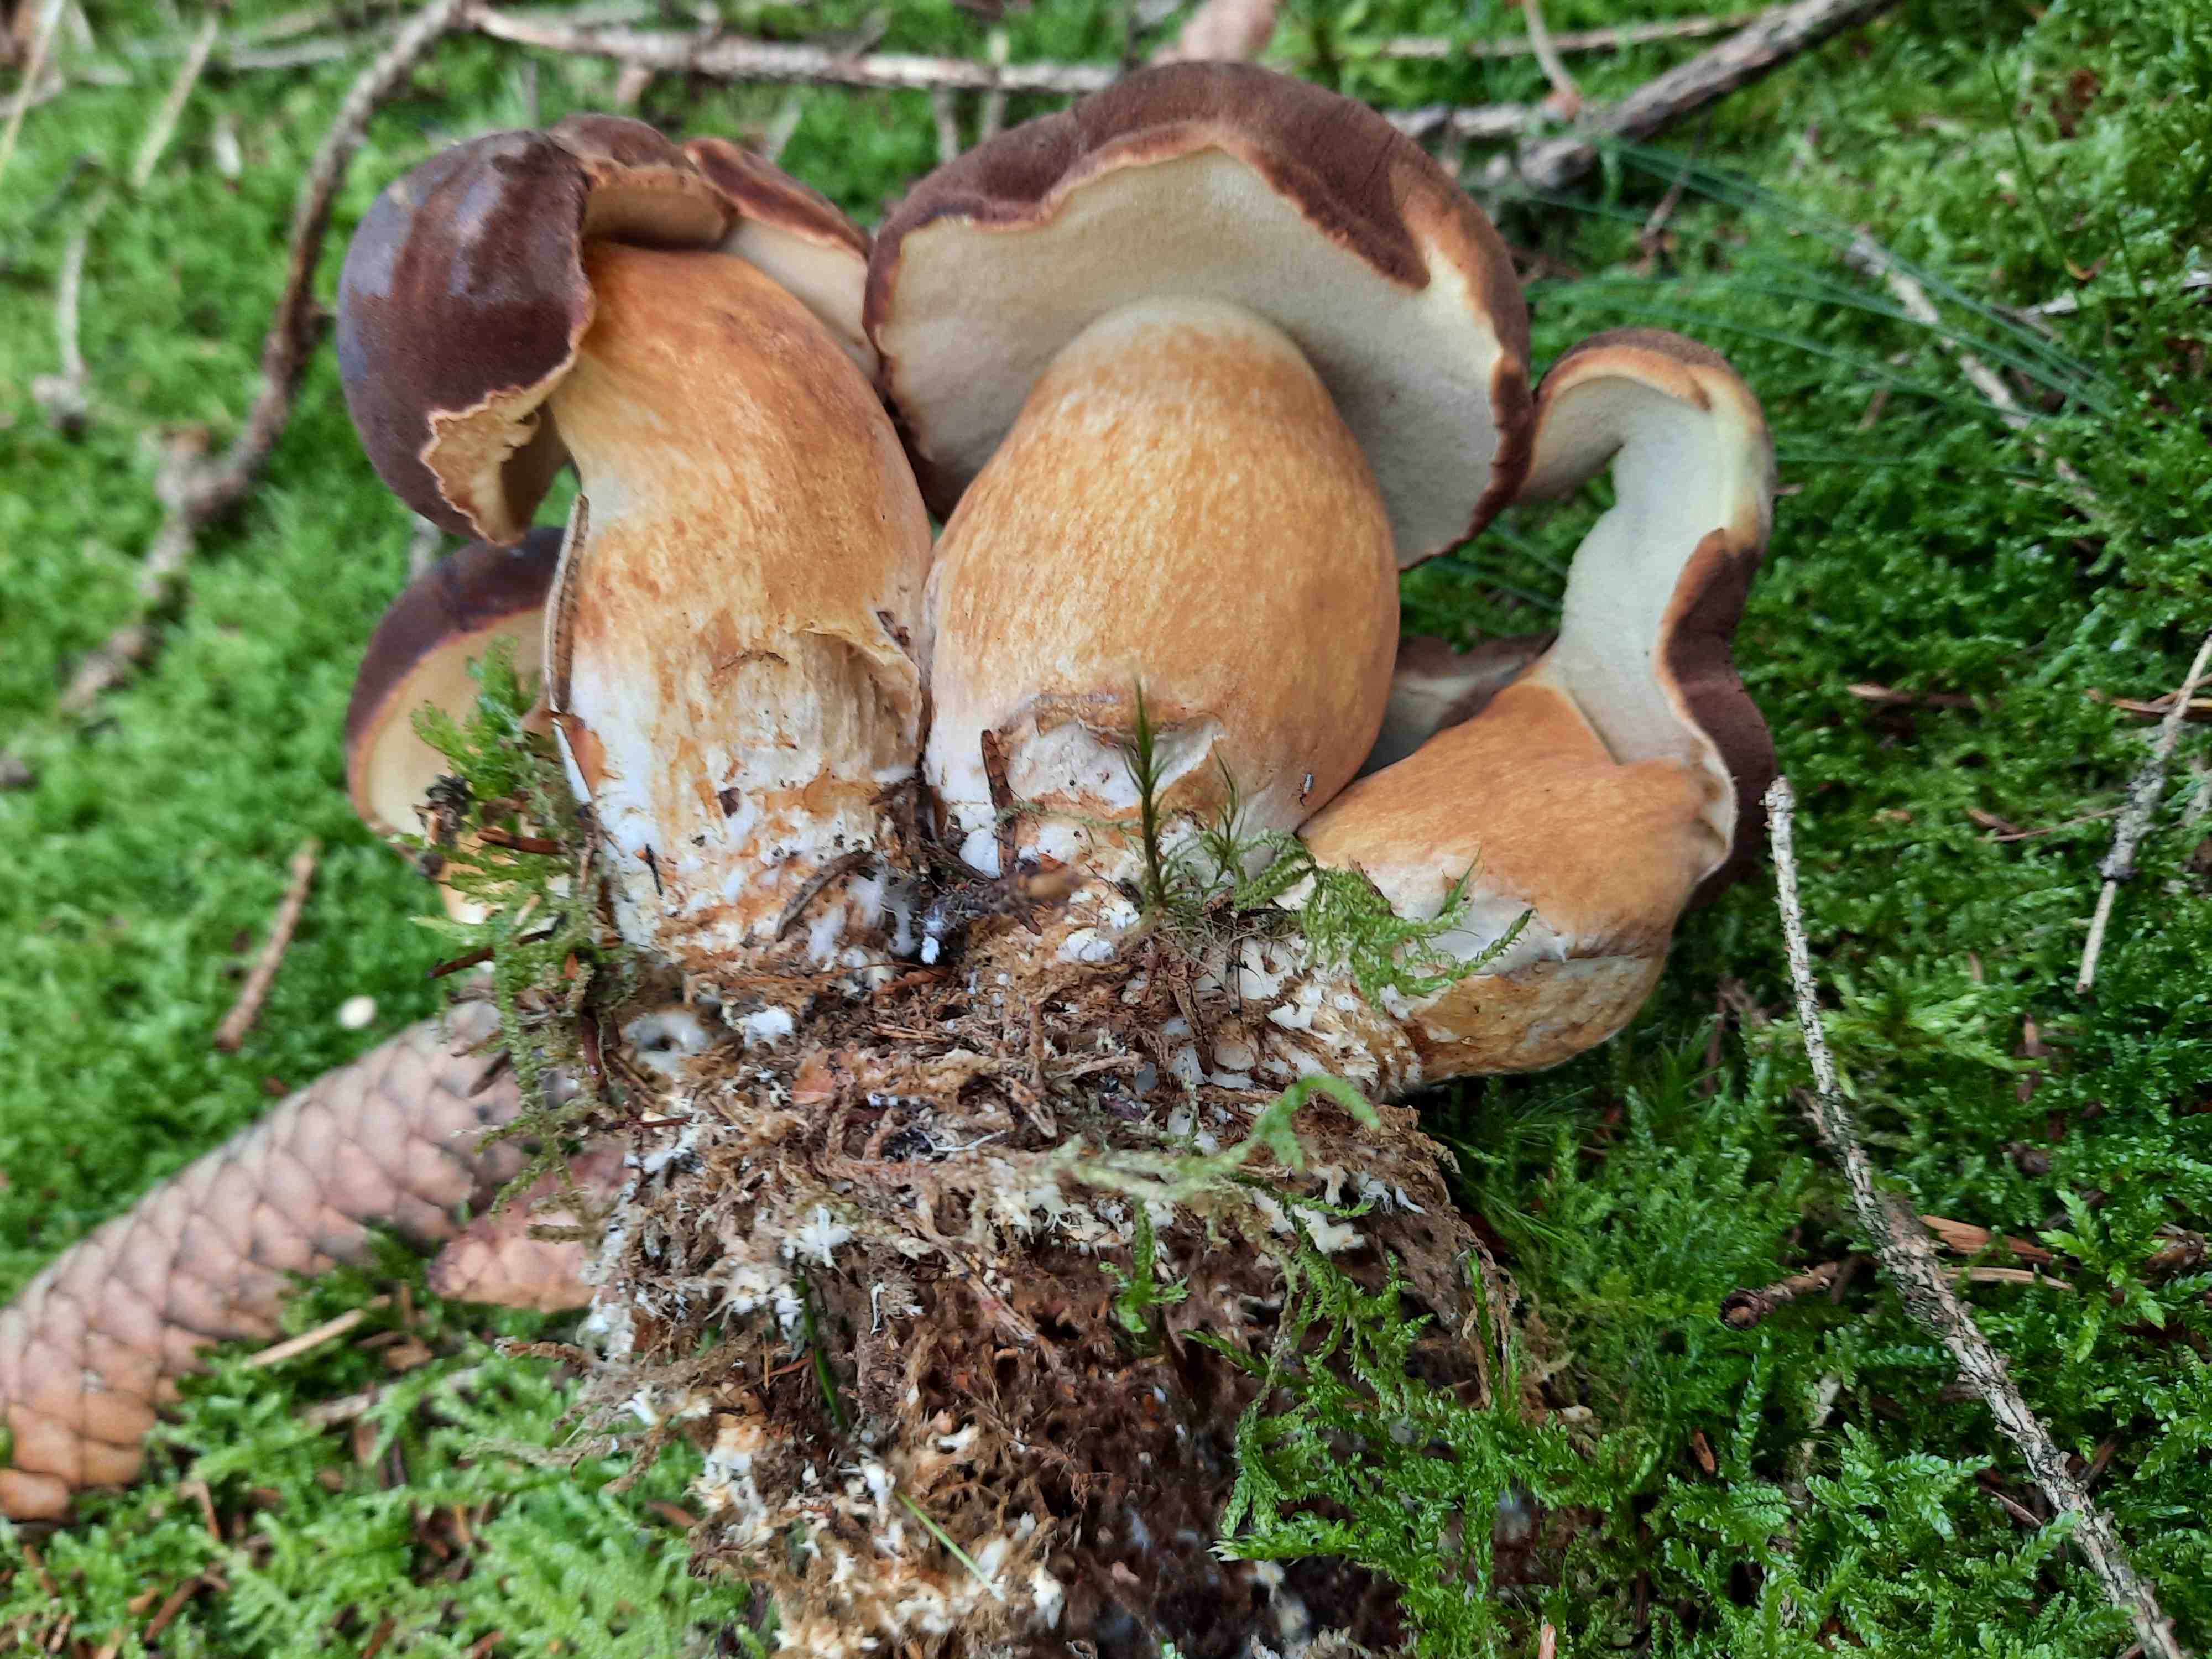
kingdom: Fungi
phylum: Basidiomycota
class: Agaricomycetes
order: Boletales
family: Boletaceae
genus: Imleria
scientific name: Imleria badia
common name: brunstokket rørhat
